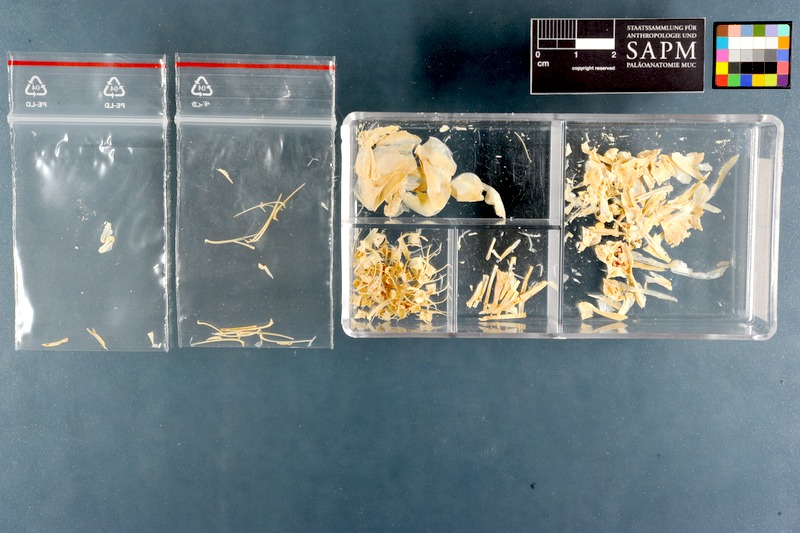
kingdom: Animalia
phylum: Chordata
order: Clupeiformes
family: Clupeidae
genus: Sardinops
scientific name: Sardinops sagax
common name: Pilchard
